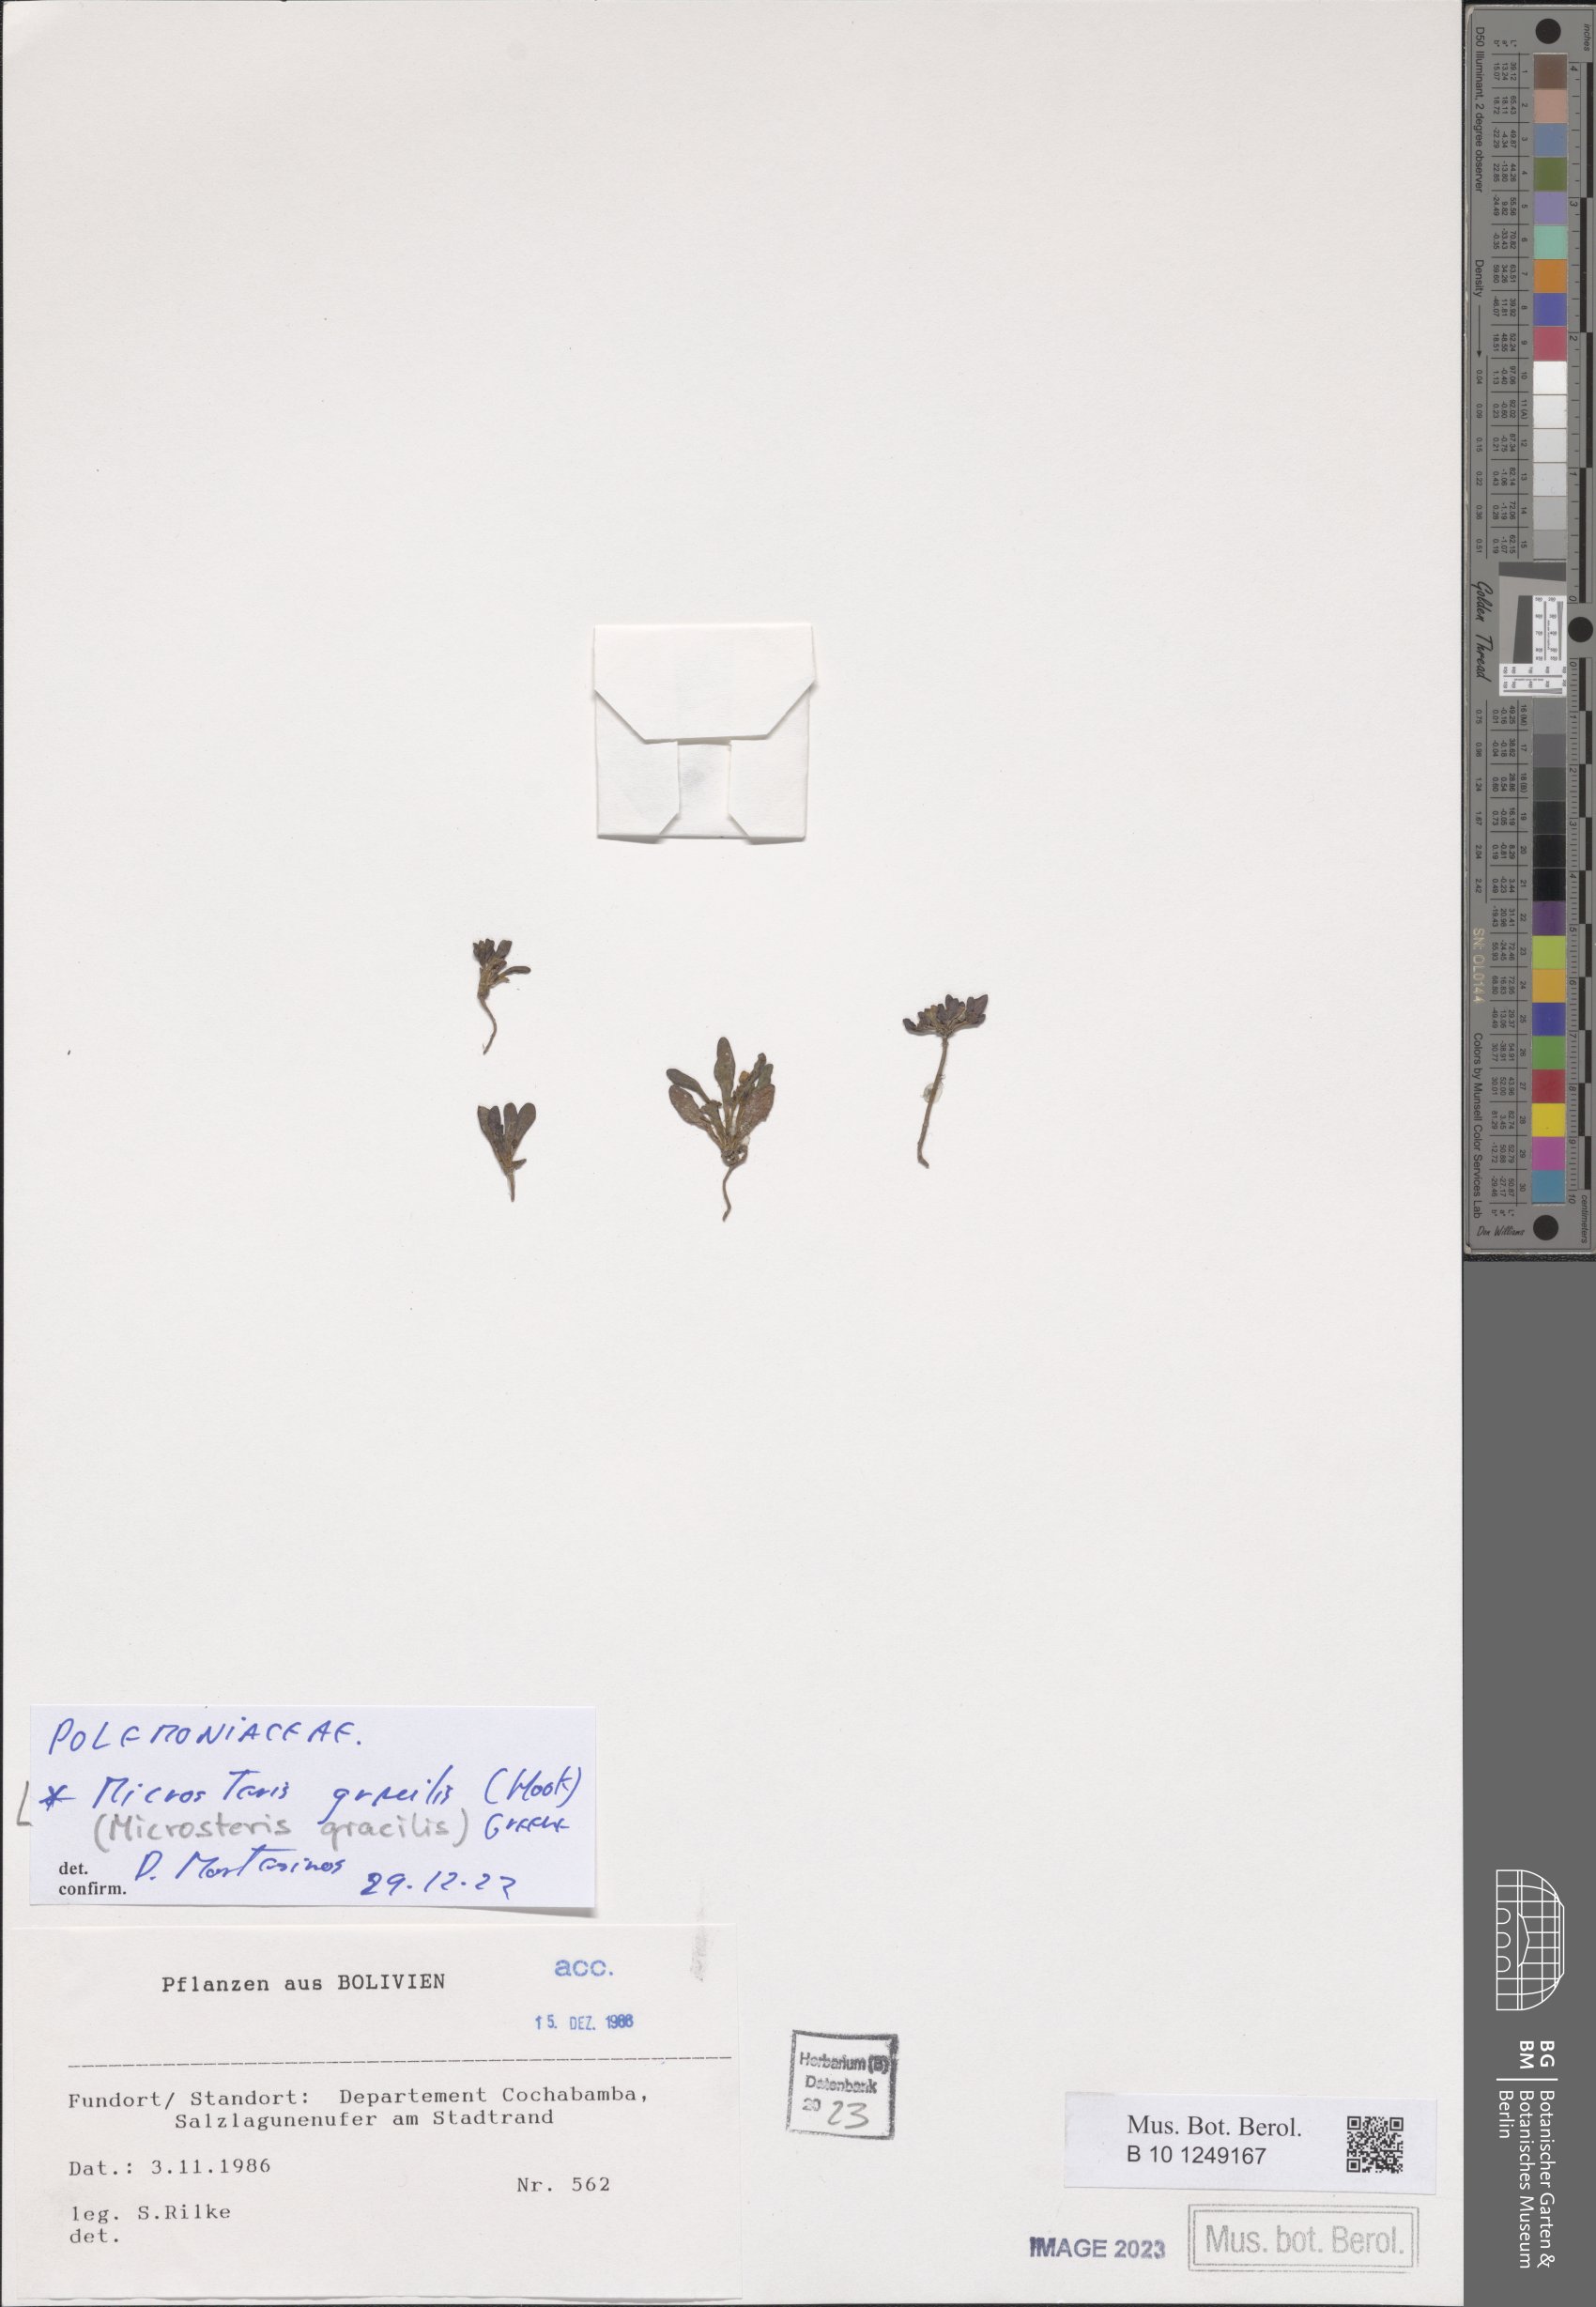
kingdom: Plantae
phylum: Tracheophyta
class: Magnoliopsida
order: Ericales
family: Polemoniaceae
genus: Phlox
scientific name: Phlox gracilis
